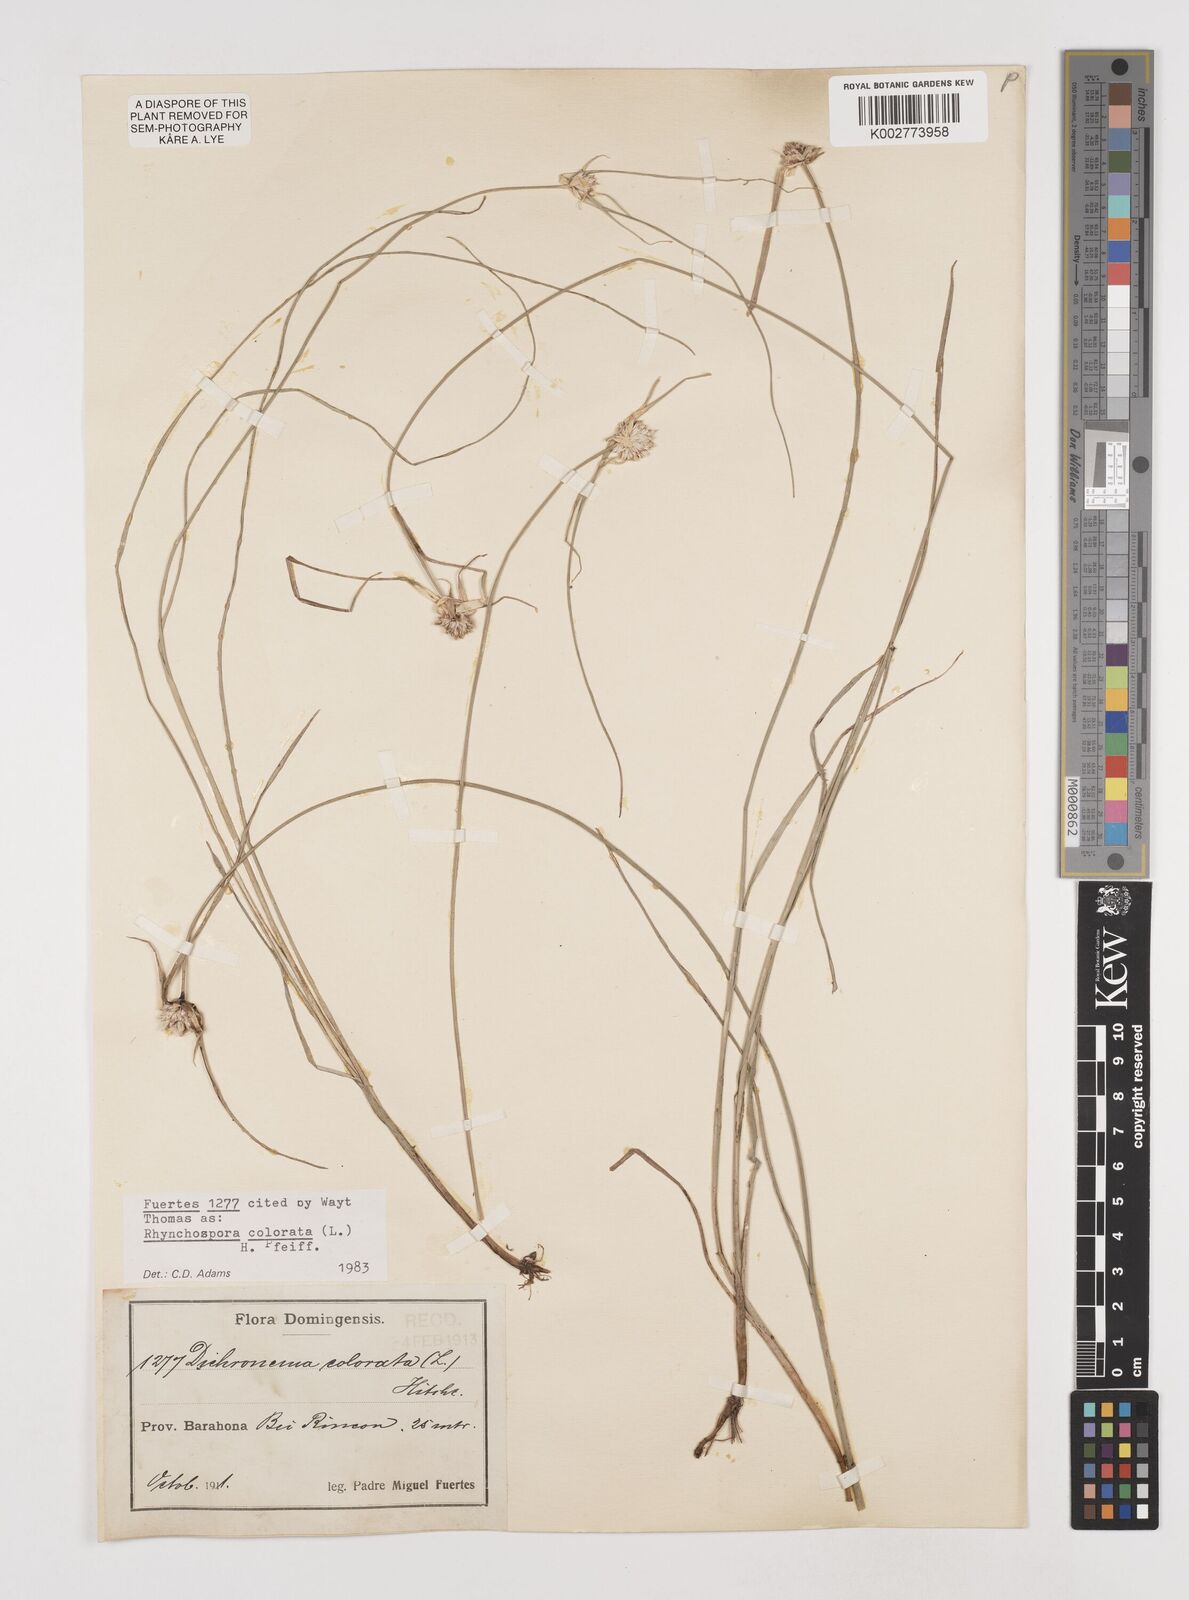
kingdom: Plantae
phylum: Tracheophyta
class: Liliopsida
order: Poales
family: Cyperaceae
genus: Rhynchospora
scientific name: Rhynchospora colorata
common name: Star sedge
